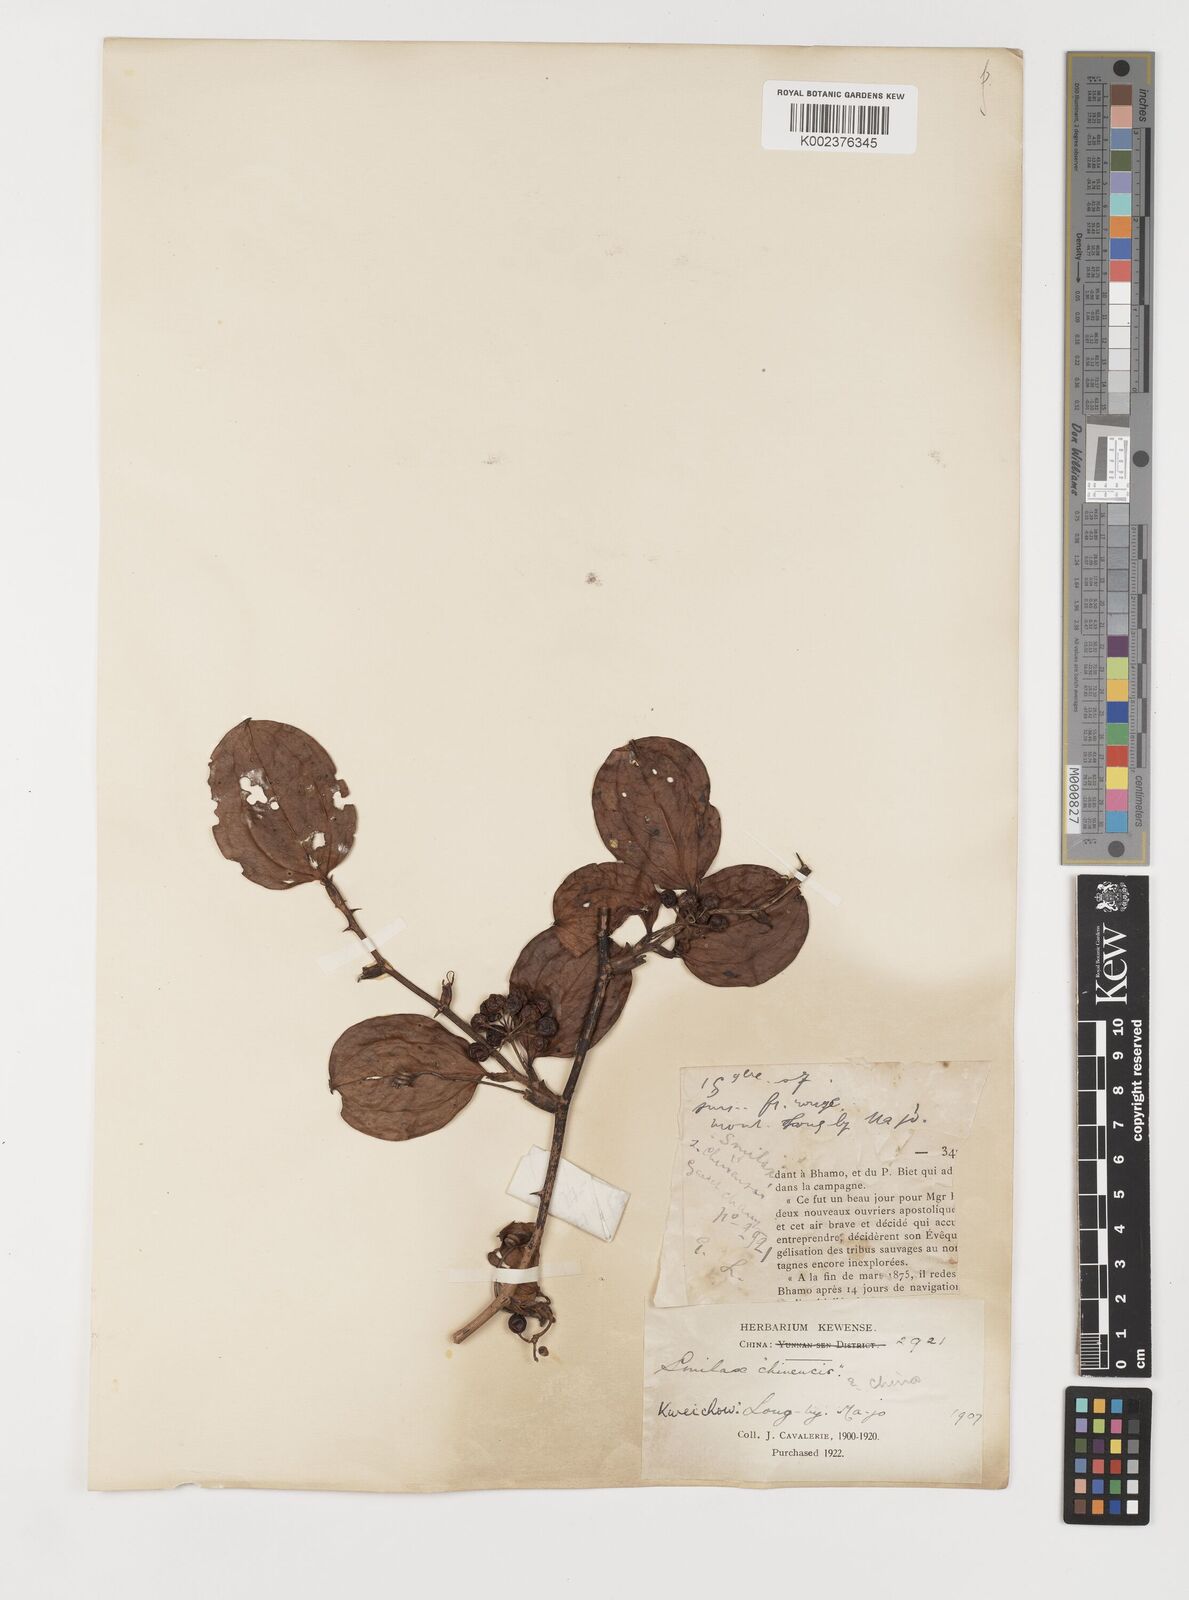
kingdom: Plantae
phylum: Tracheophyta
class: Liliopsida
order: Liliales
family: Smilacaceae
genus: Smilax
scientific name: Smilax china
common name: Chinaroot
